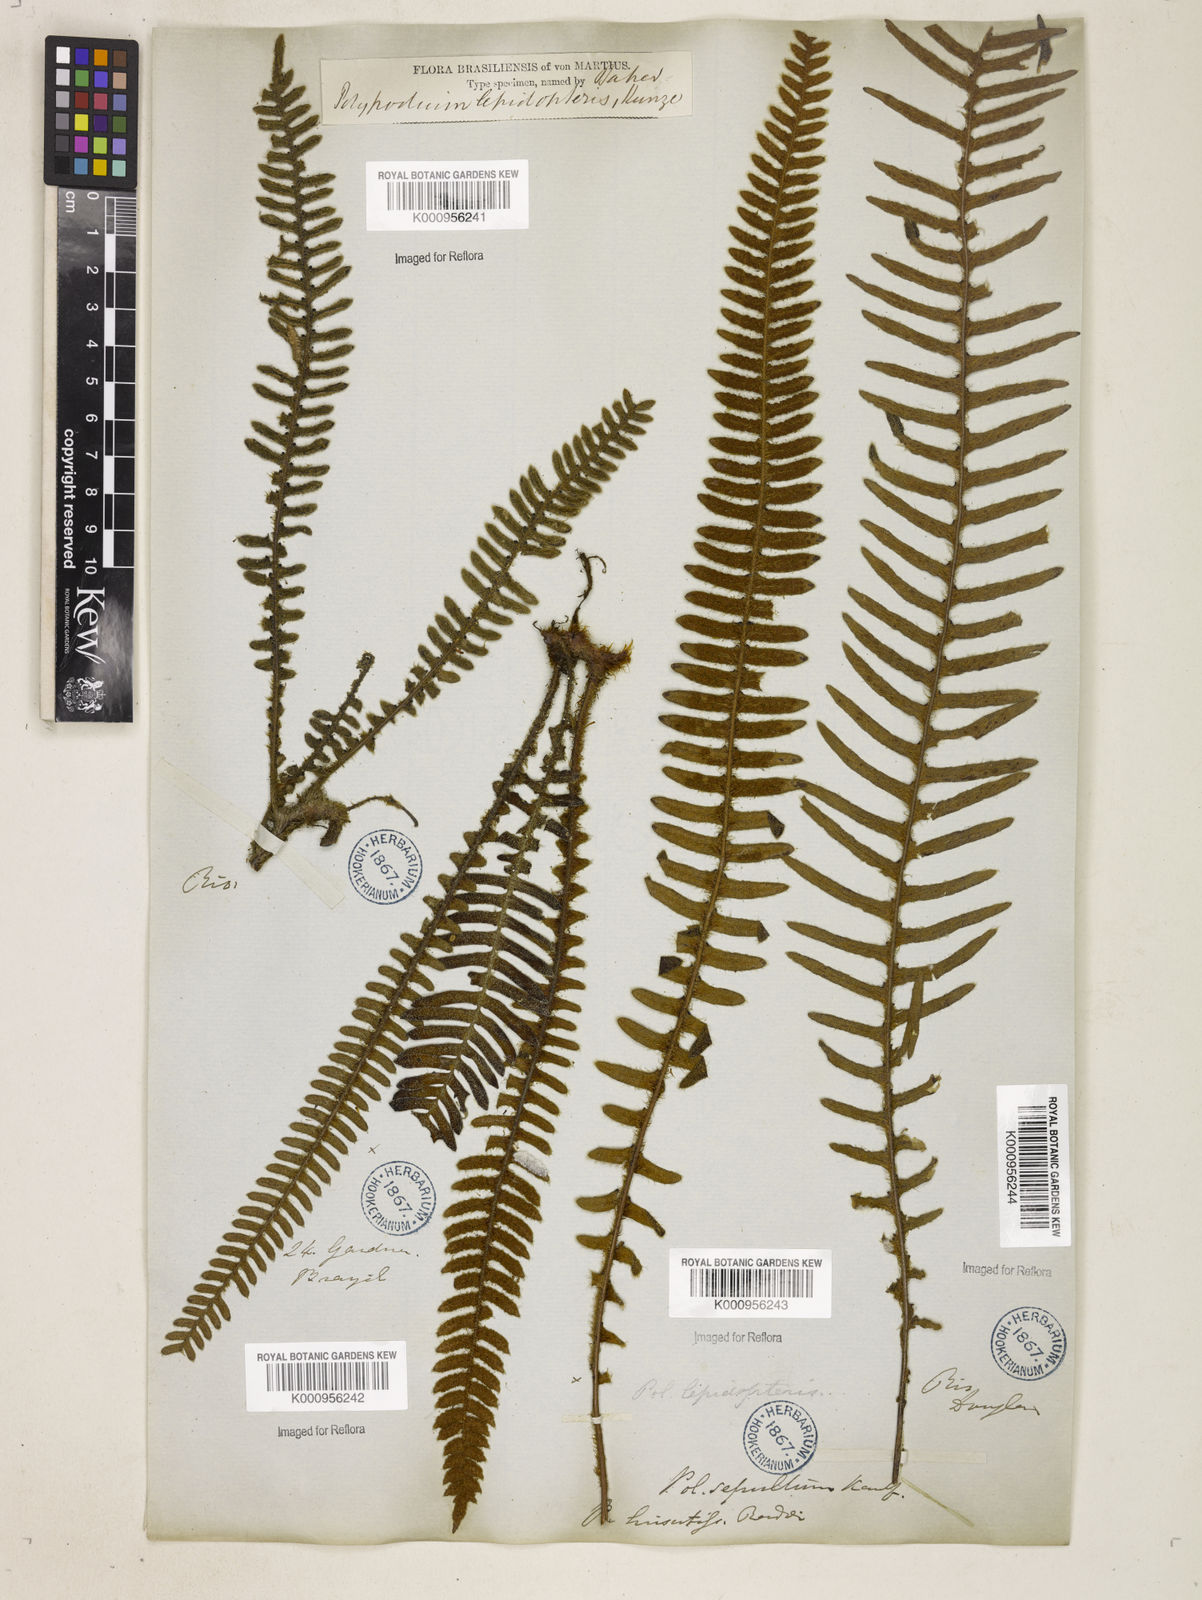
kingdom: Plantae
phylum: Tracheophyta
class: Polypodiopsida
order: Polypodiales
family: Polypodiaceae
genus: Pleopeltis
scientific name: Pleopeltis hirsutissima
